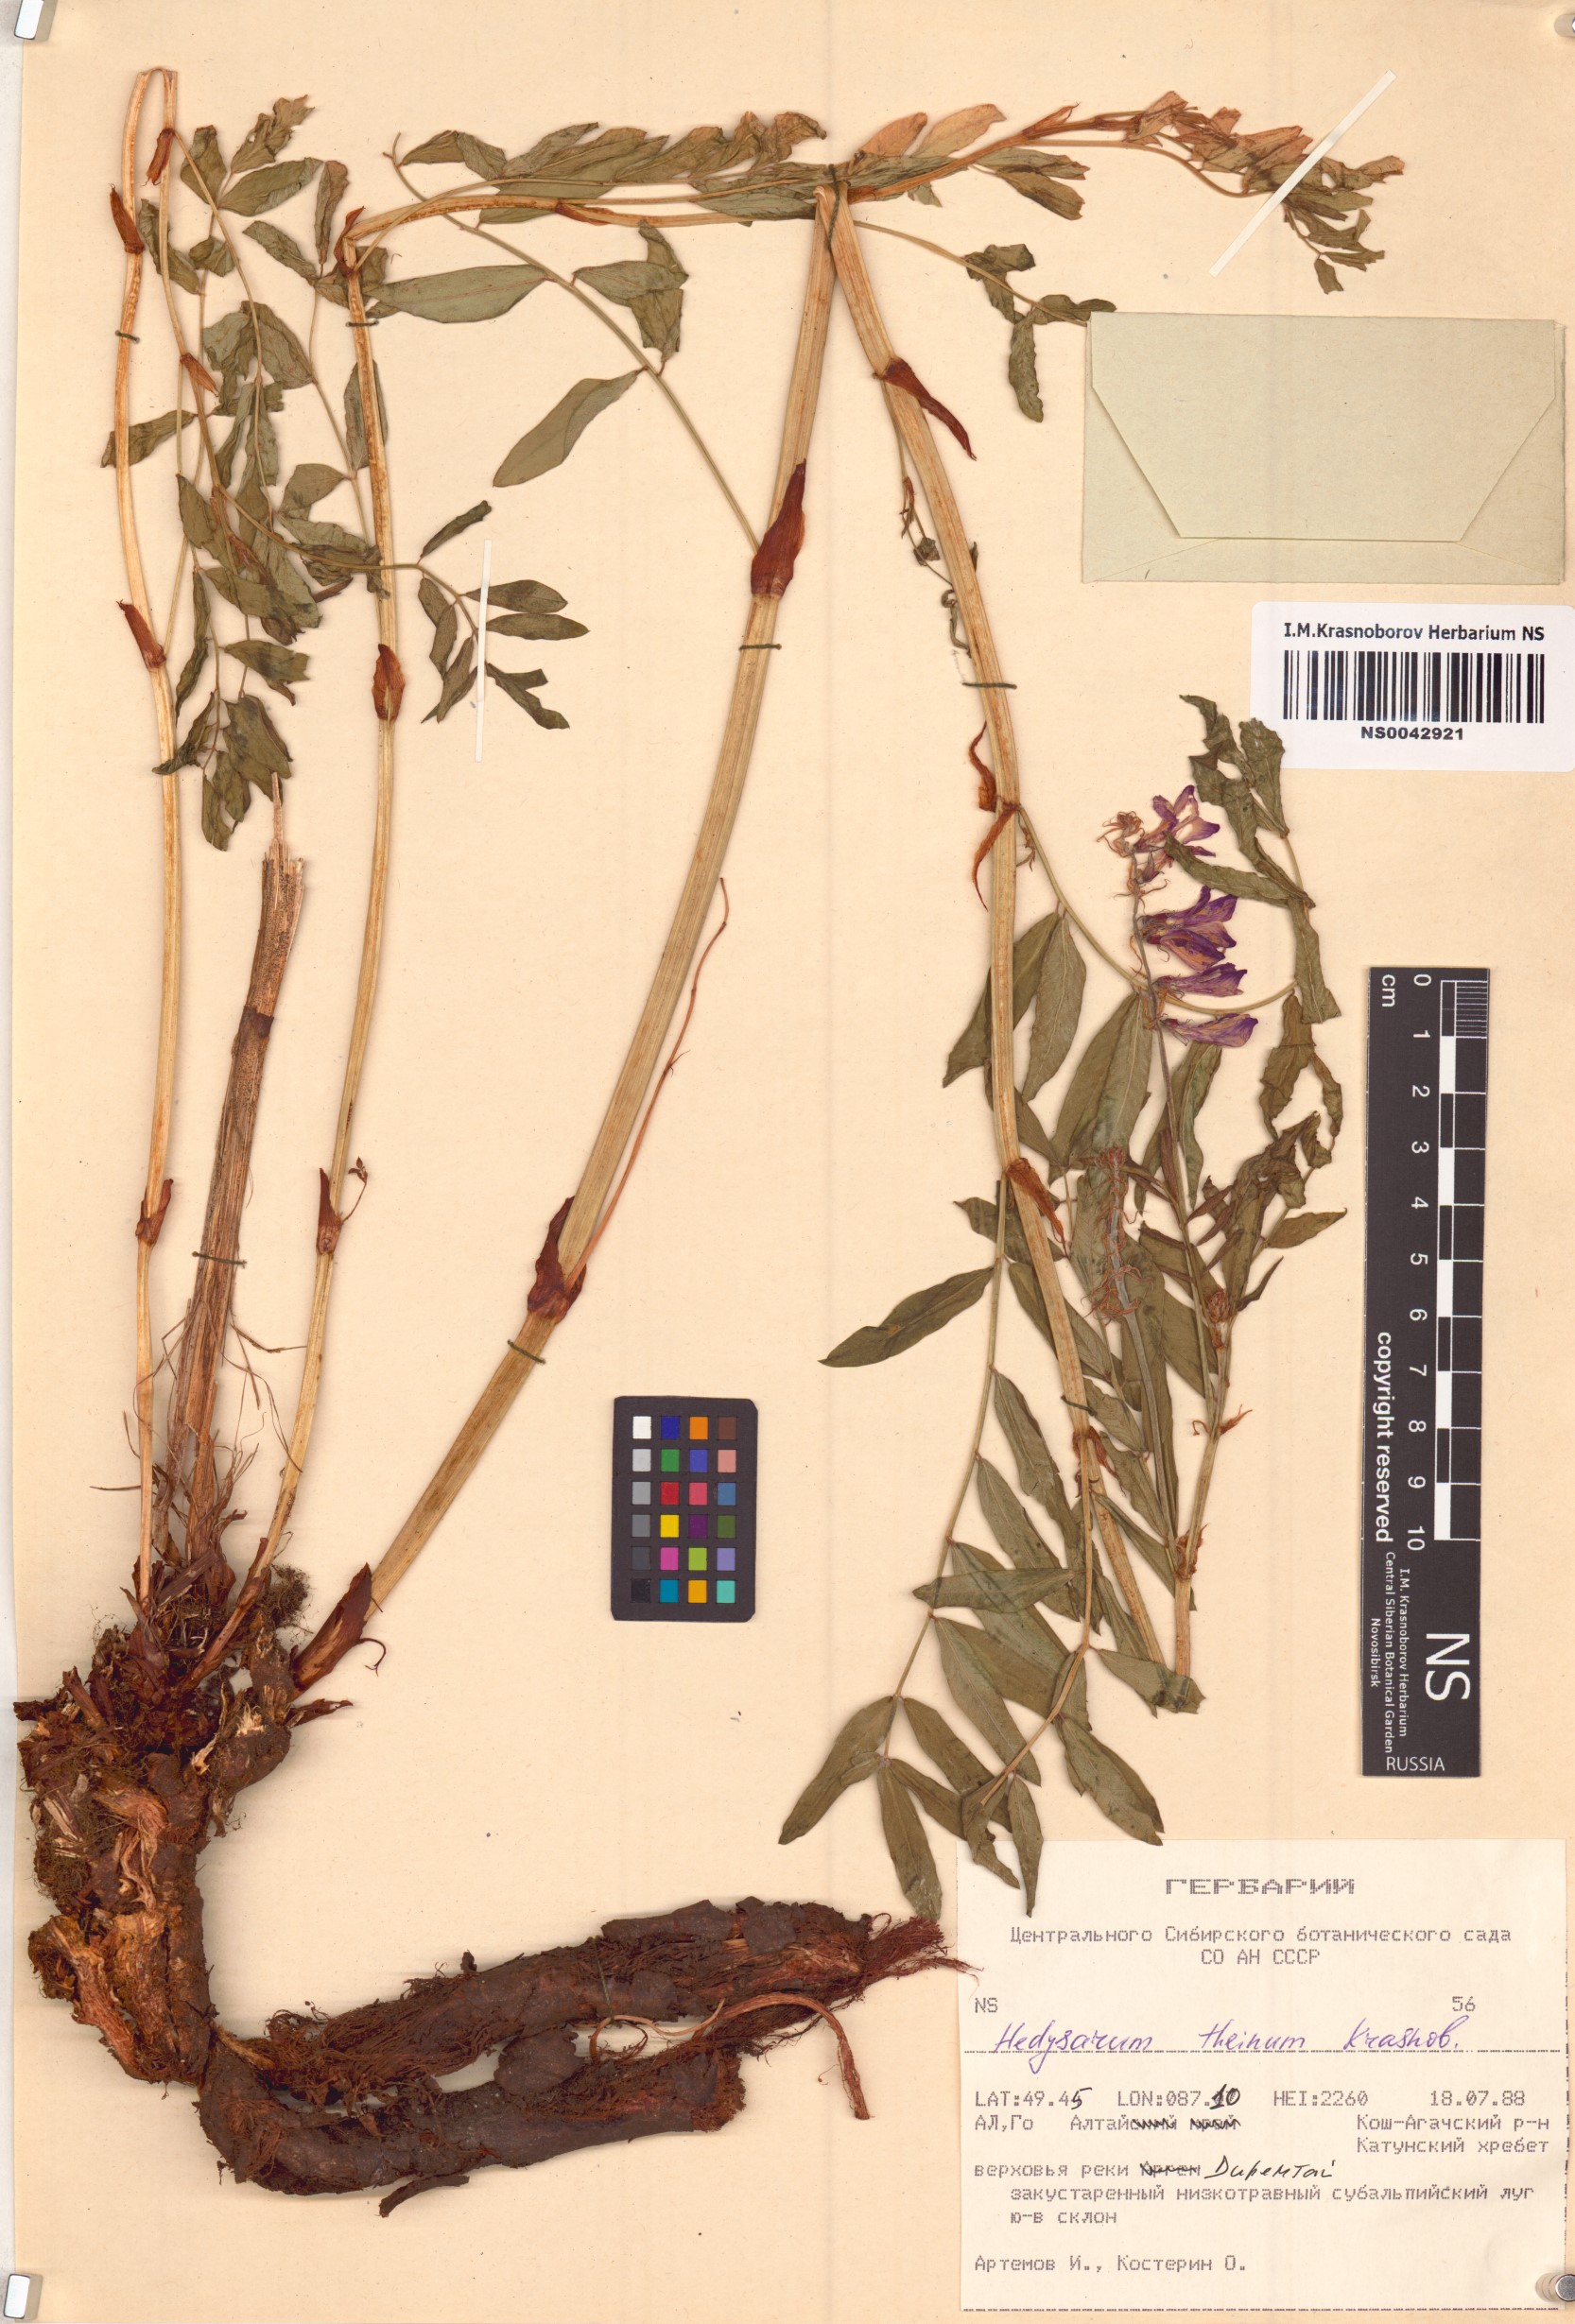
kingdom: Plantae
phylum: Tracheophyta
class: Magnoliopsida
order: Fabales
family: Fabaceae
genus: Hedysarum
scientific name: Hedysarum theinum
